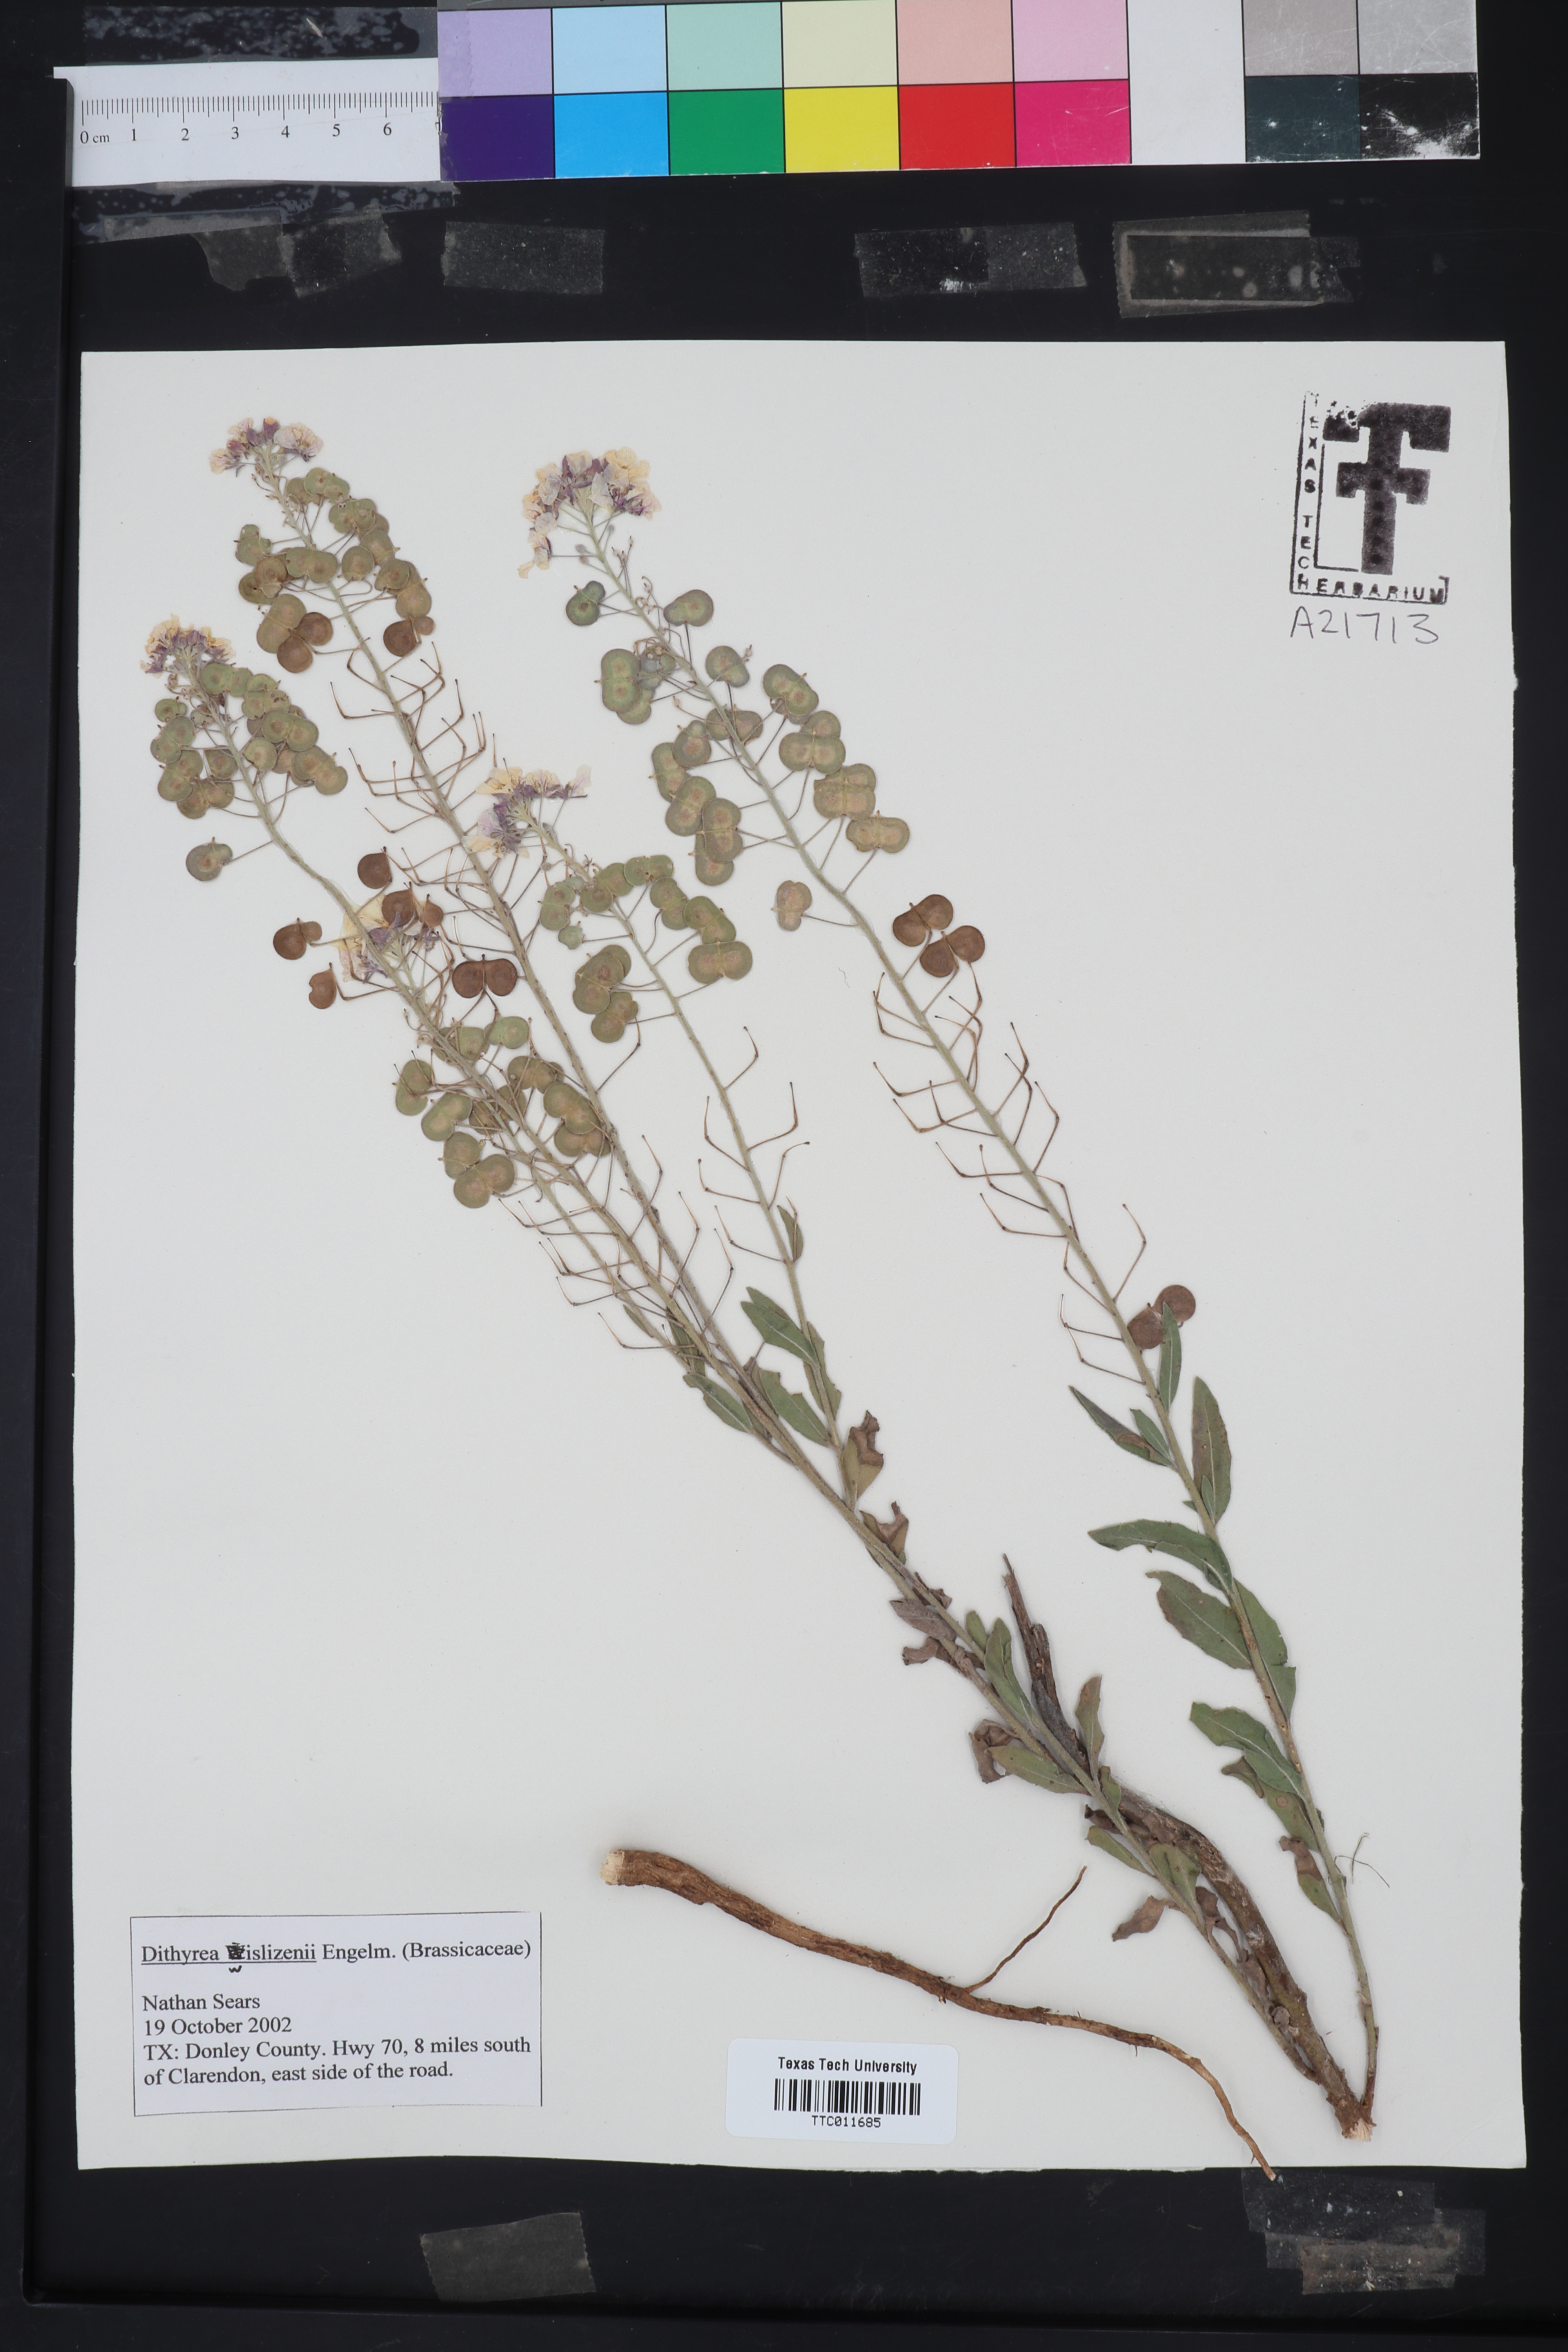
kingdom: Plantae
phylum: Tracheophyta
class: Magnoliopsida
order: Brassicales
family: Brassicaceae
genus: Dimorphocarpa
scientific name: Dimorphocarpa wislizenii
